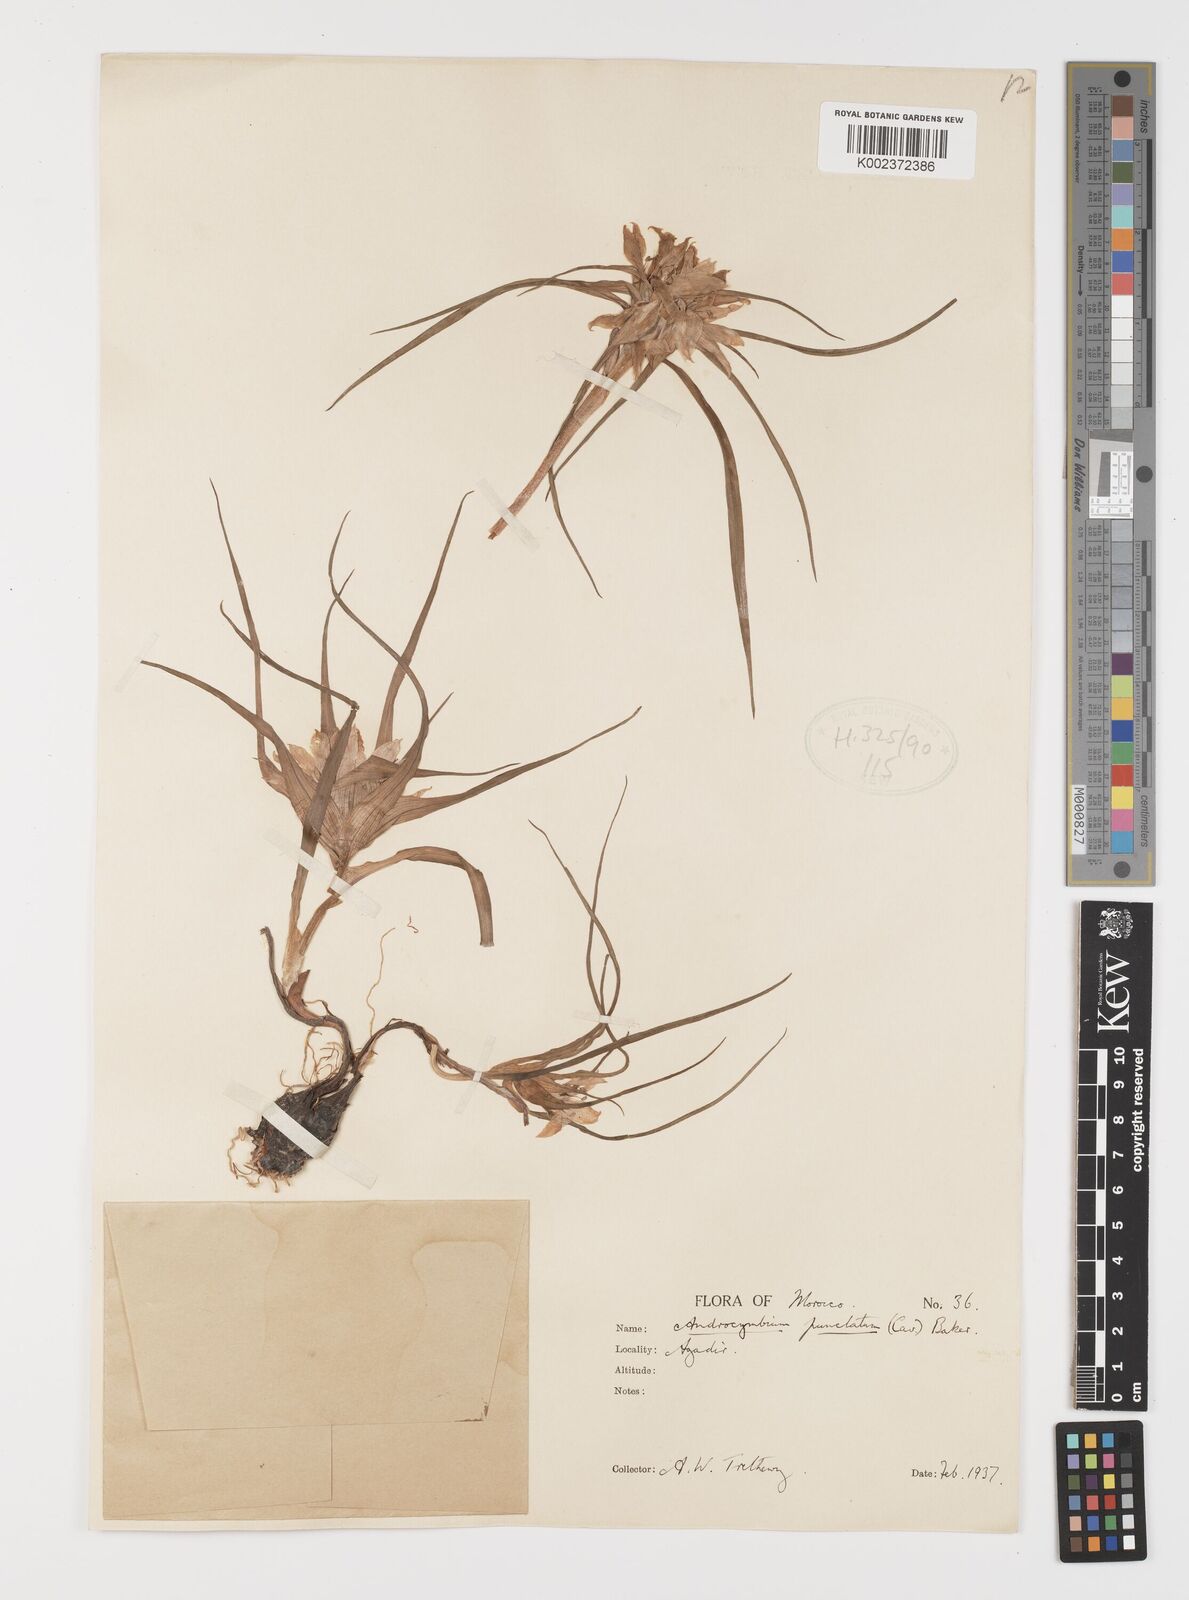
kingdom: Plantae
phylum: Tracheophyta
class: Liliopsida
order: Liliales
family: Colchicaceae
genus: Colchicum
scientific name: Colchicum gramineum
